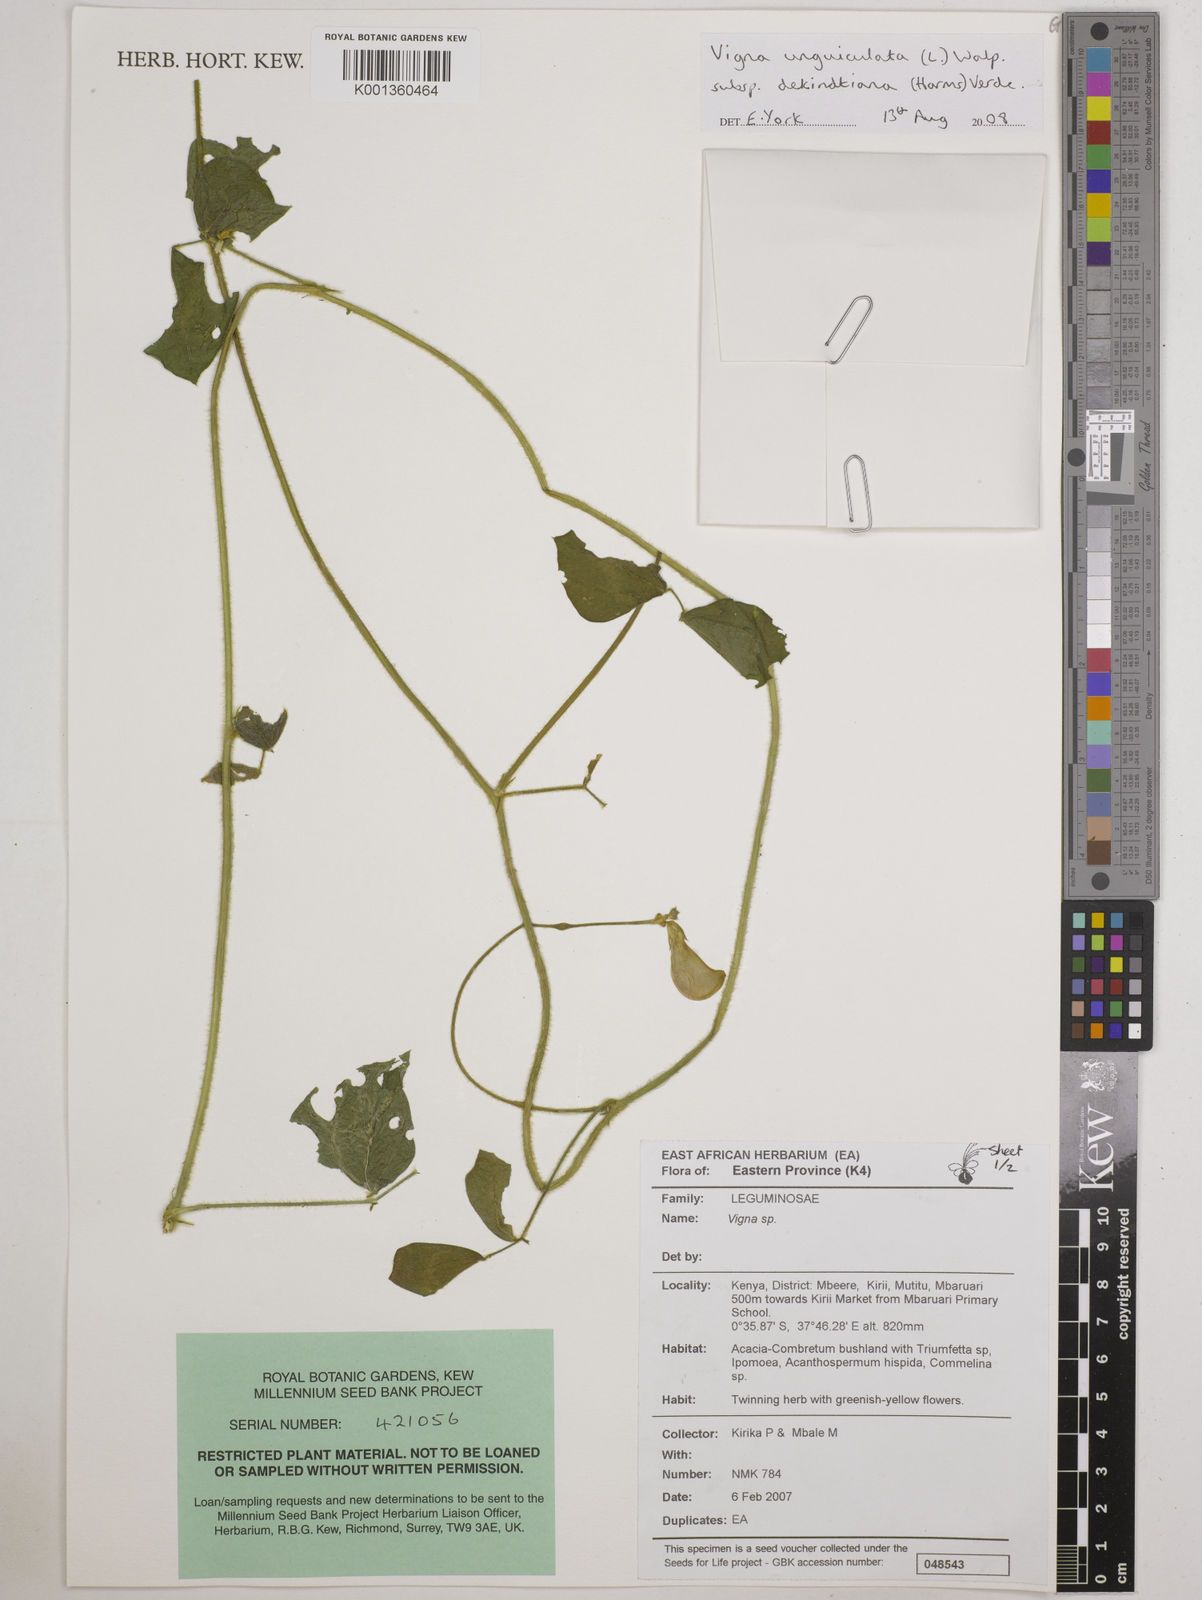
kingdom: Plantae
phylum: Tracheophyta
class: Magnoliopsida
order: Fabales
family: Fabaceae
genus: Vigna
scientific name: Vigna
